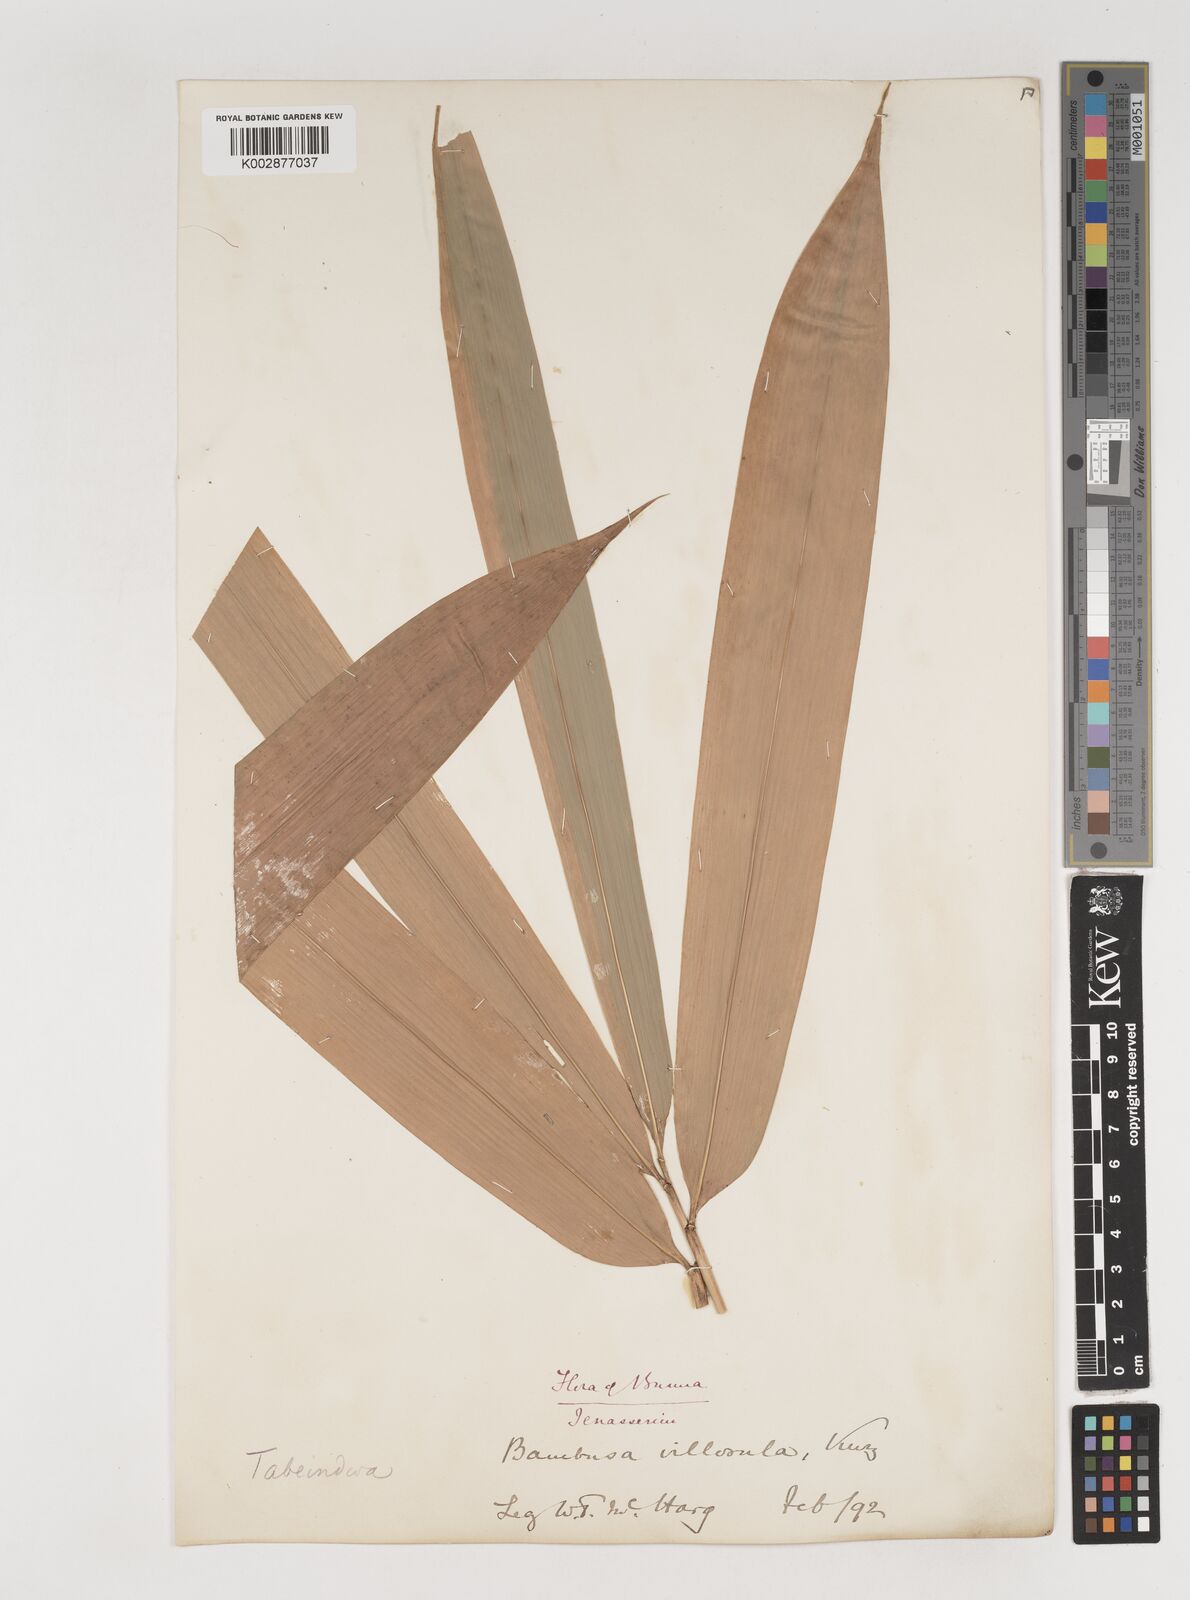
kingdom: Plantae
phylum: Tracheophyta
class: Liliopsida
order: Poales
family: Poaceae
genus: Bambusa
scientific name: Bambusa villosula
